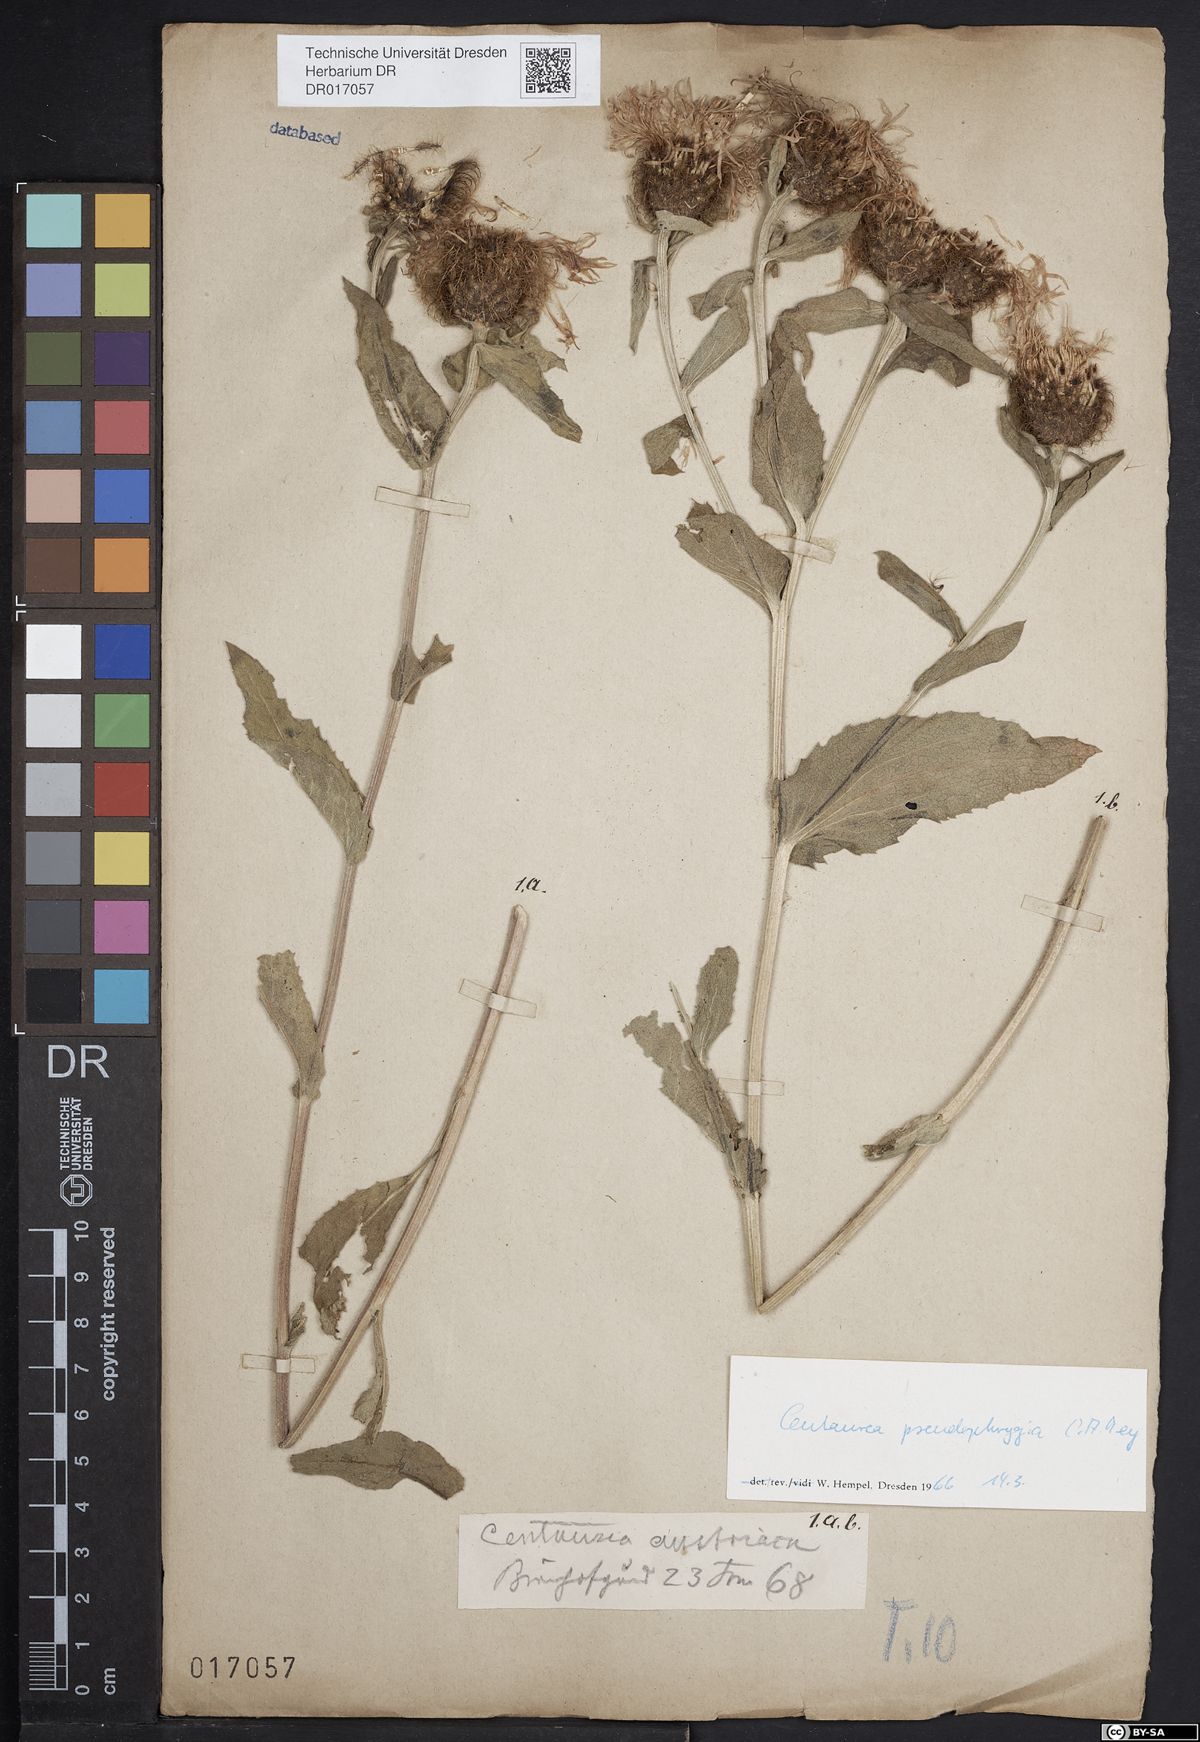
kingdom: Plantae
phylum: Tracheophyta
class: Magnoliopsida
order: Asterales
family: Asteraceae
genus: Centaurea
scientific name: Centaurea pseudophrygia
